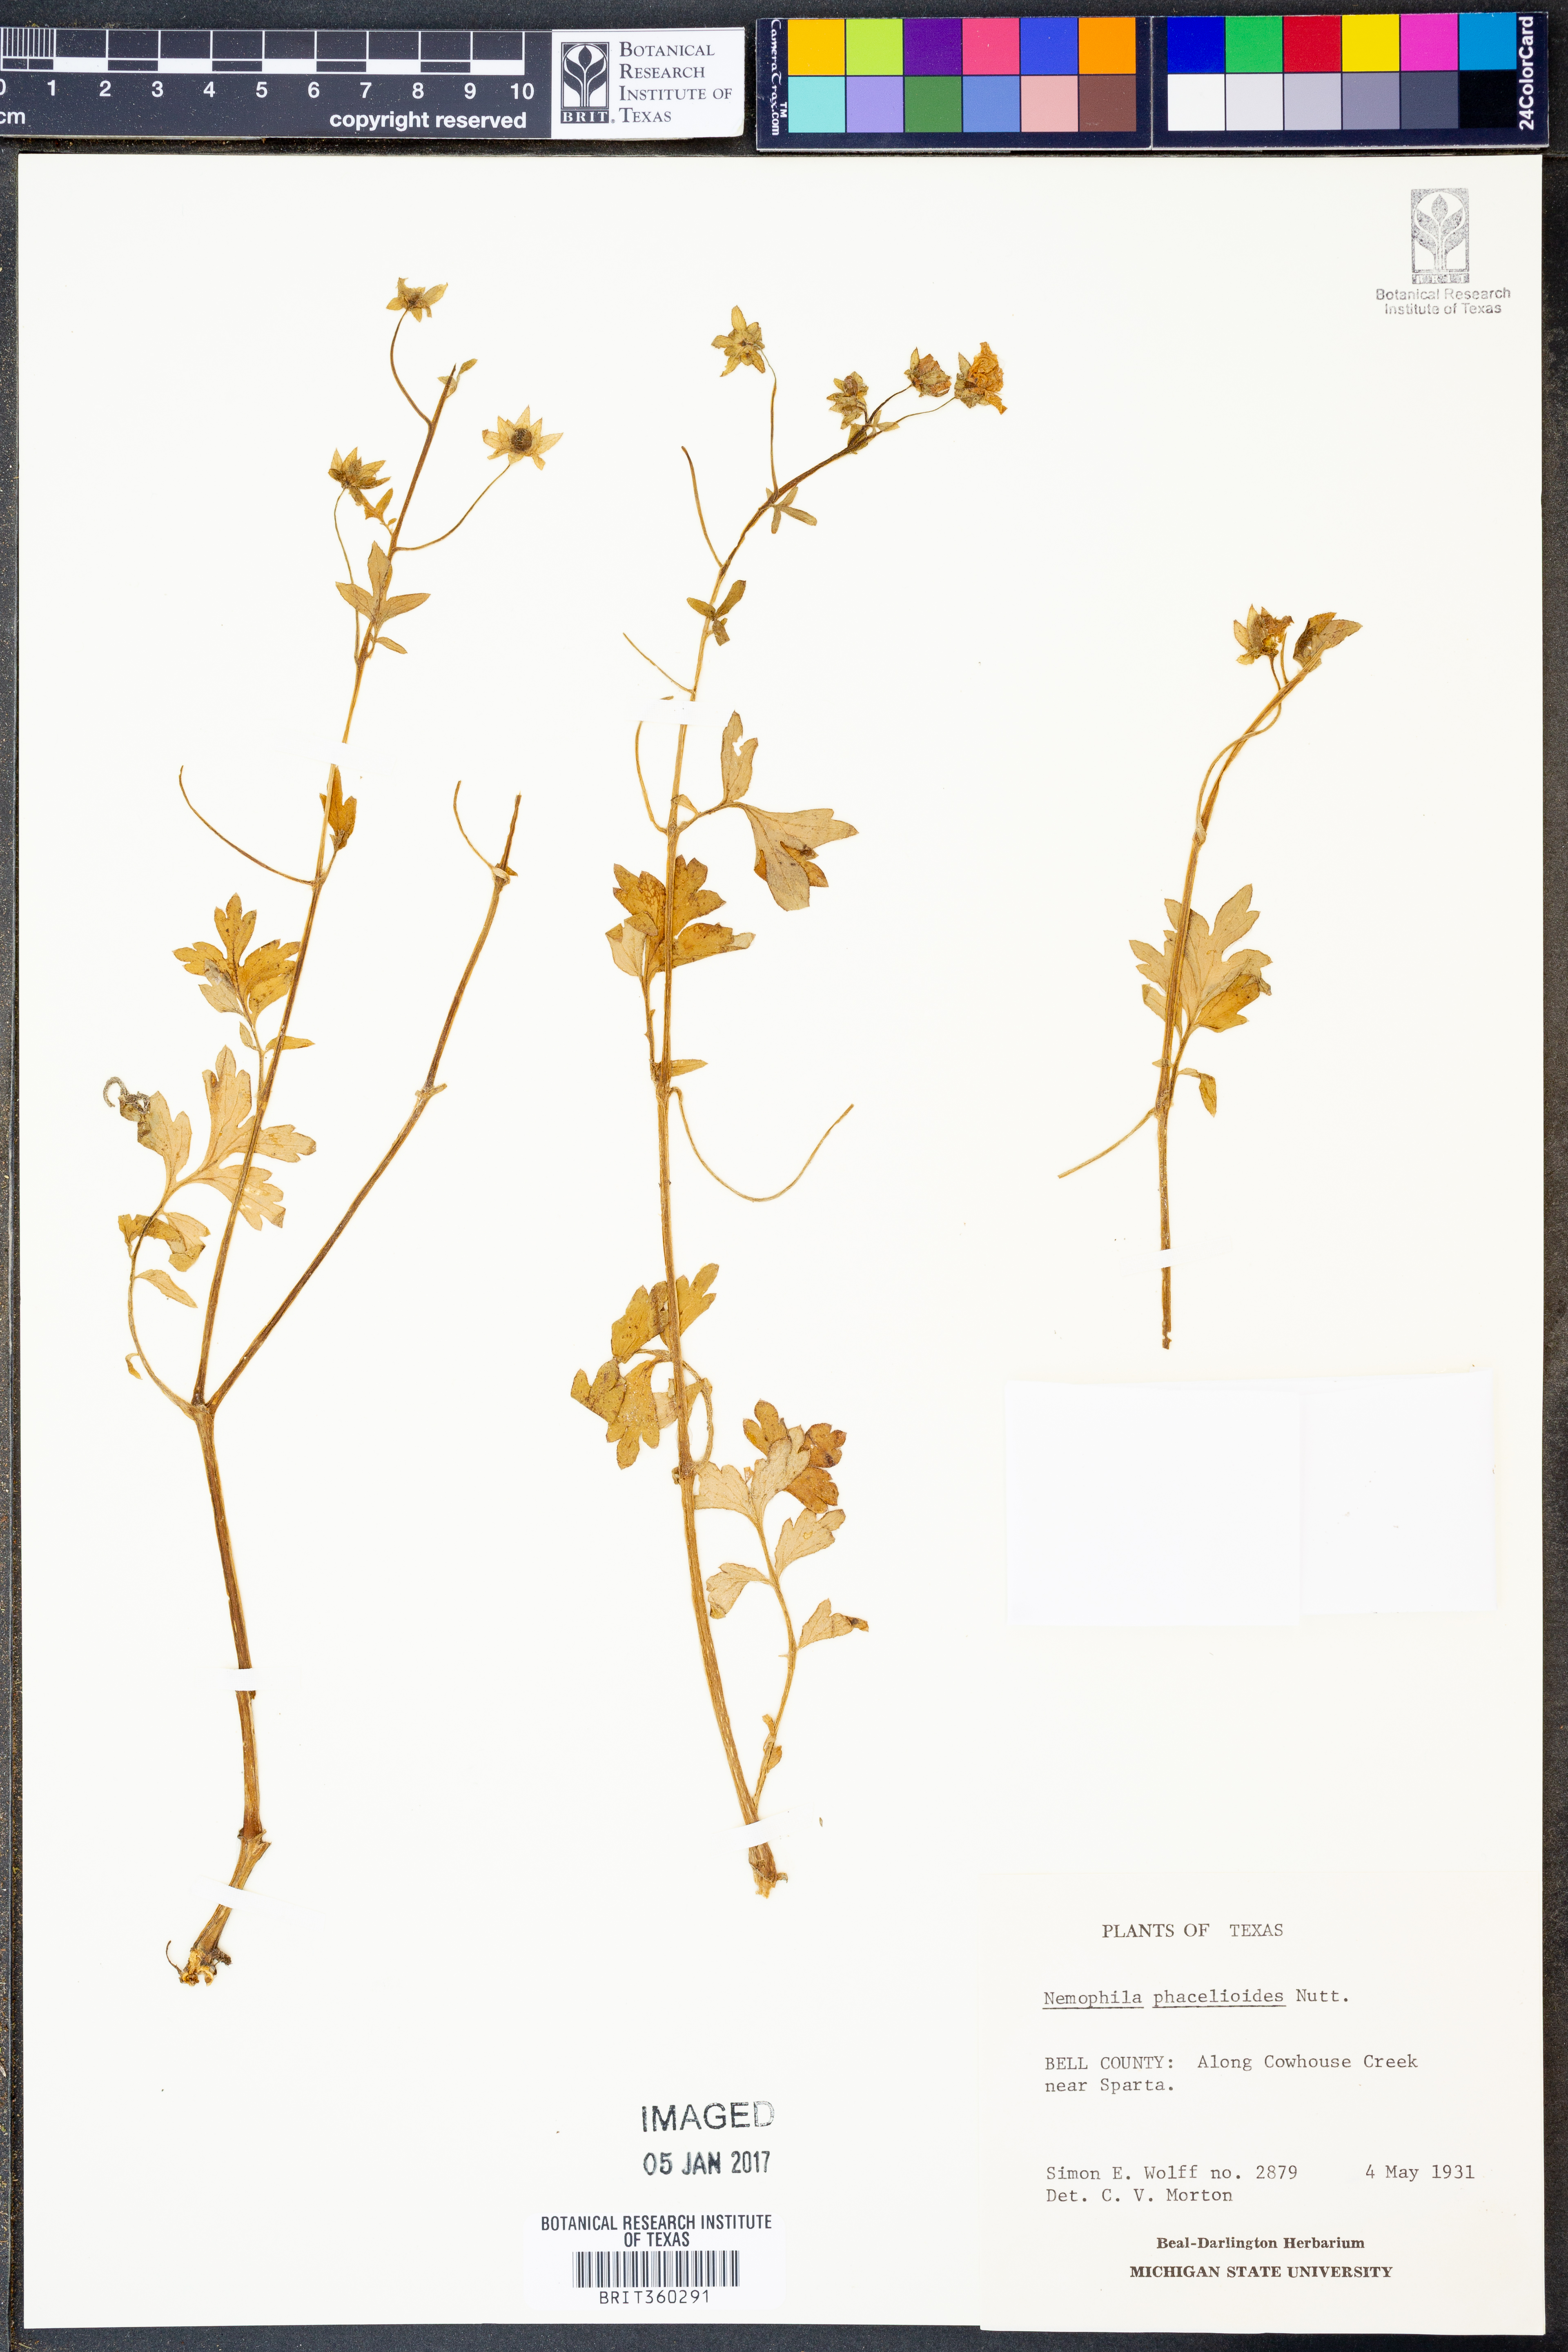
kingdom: Plantae
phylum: Tracheophyta
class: Magnoliopsida
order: Boraginales
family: Hydrophyllaceae
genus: Nemophila
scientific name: Nemophila phacelioides
